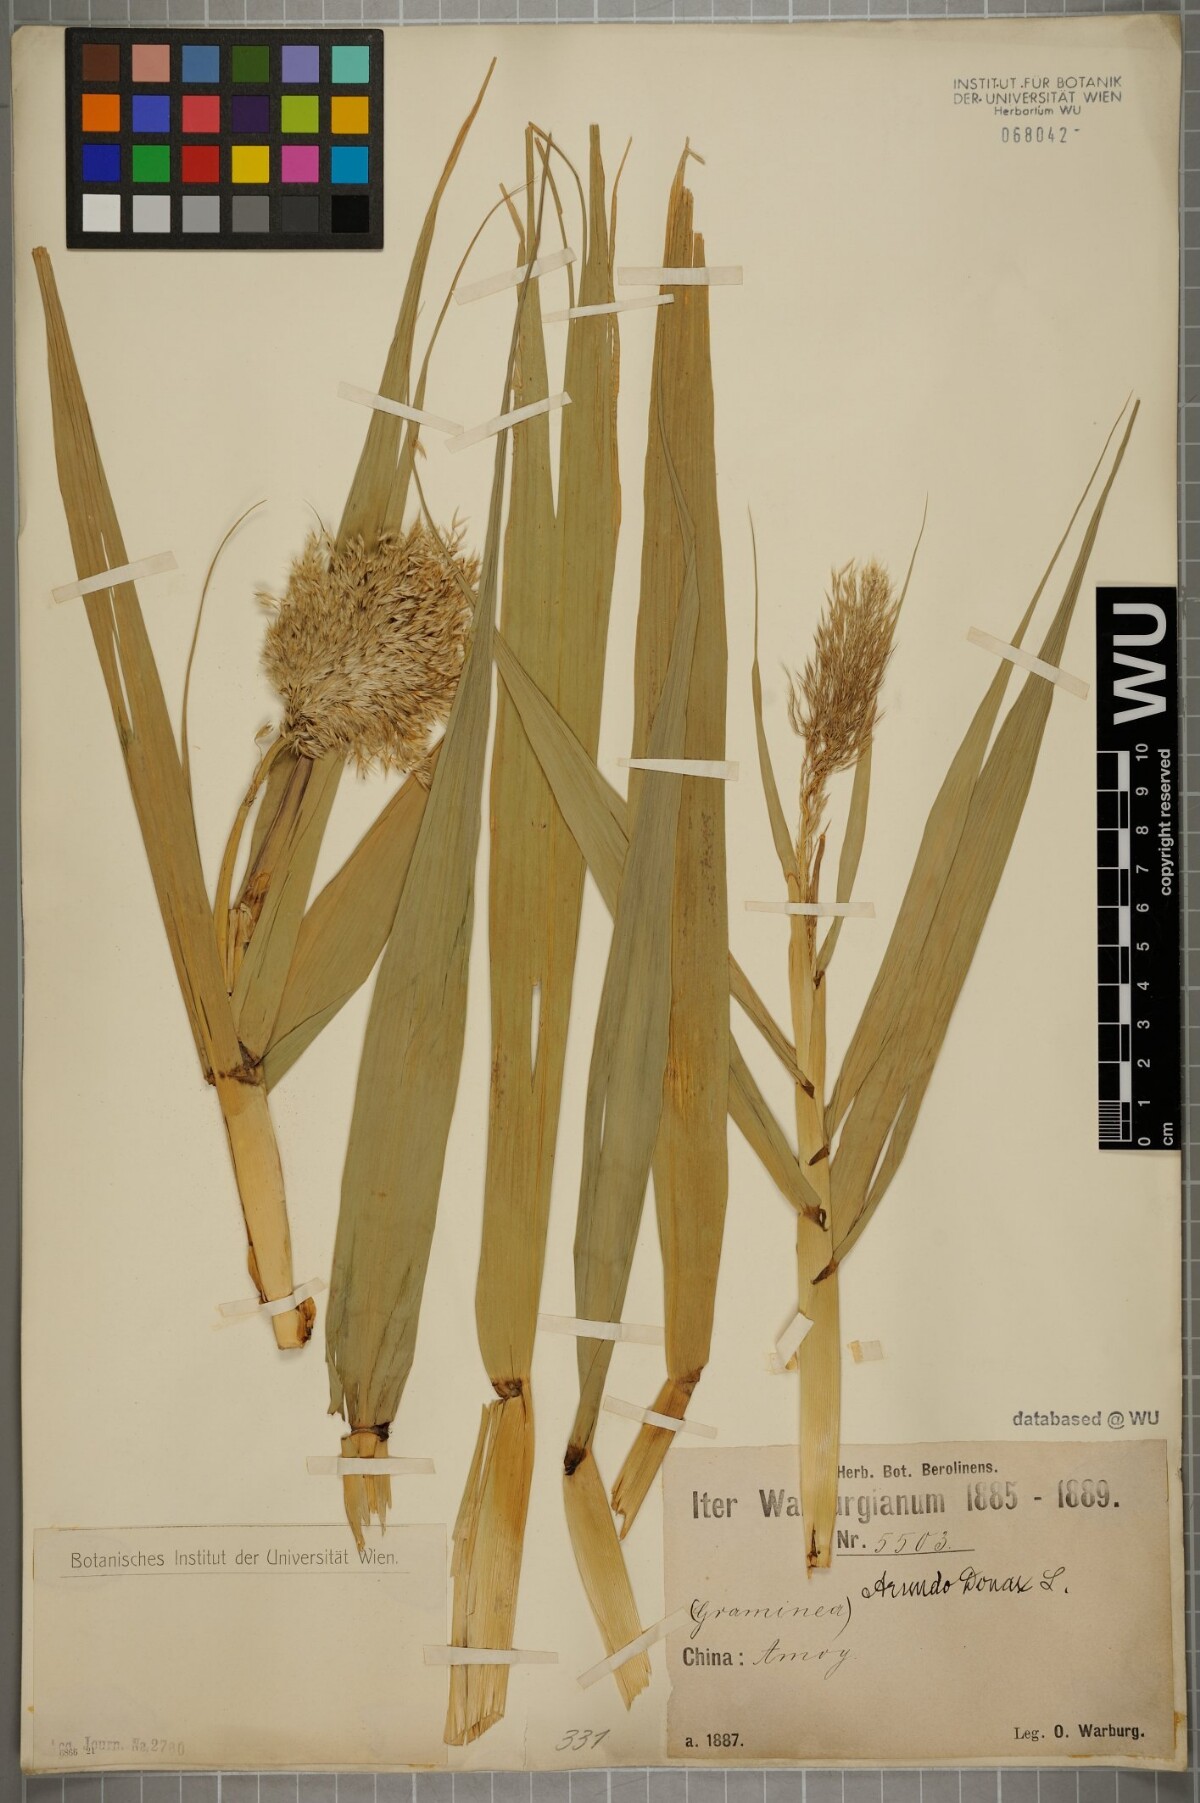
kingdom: Plantae
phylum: Tracheophyta
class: Liliopsida
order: Poales
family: Poaceae
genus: Arundo
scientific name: Arundo donax
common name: Giant reed
